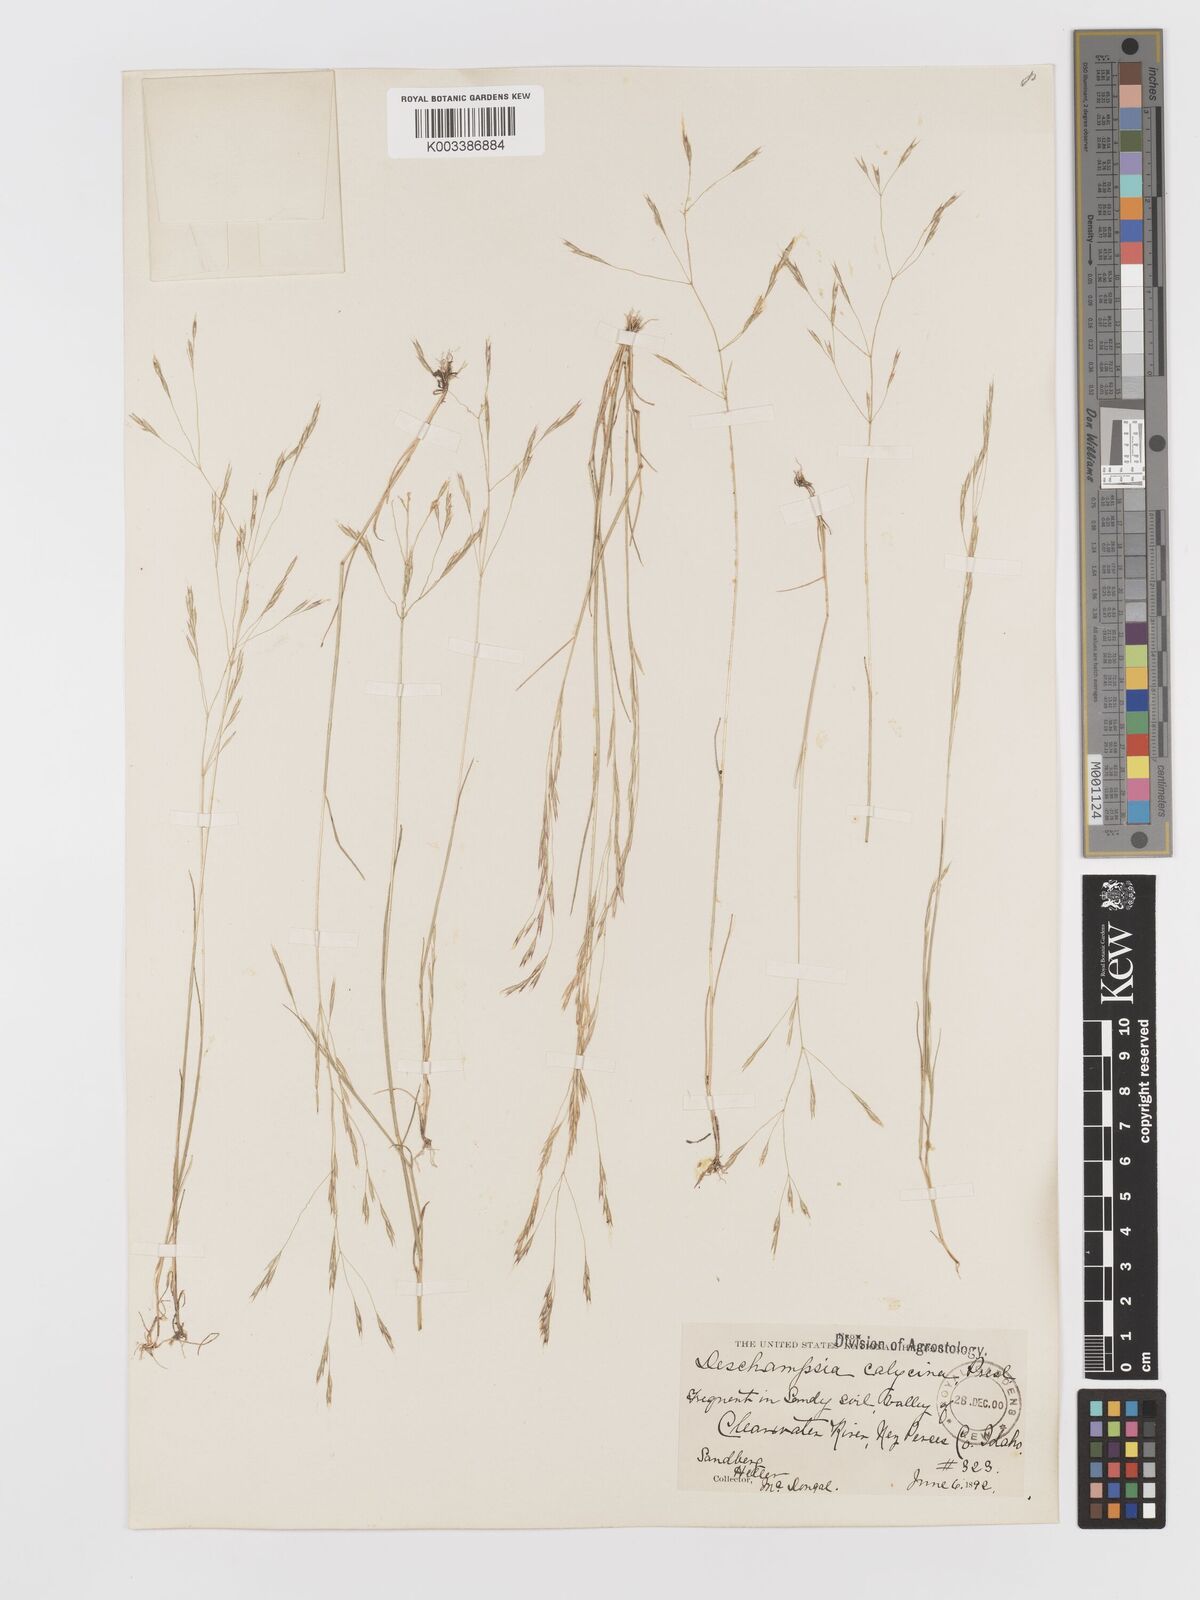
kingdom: Plantae
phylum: Tracheophyta
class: Liliopsida
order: Poales
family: Poaceae
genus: Deschampsia
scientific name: Deschampsia danthonioides
